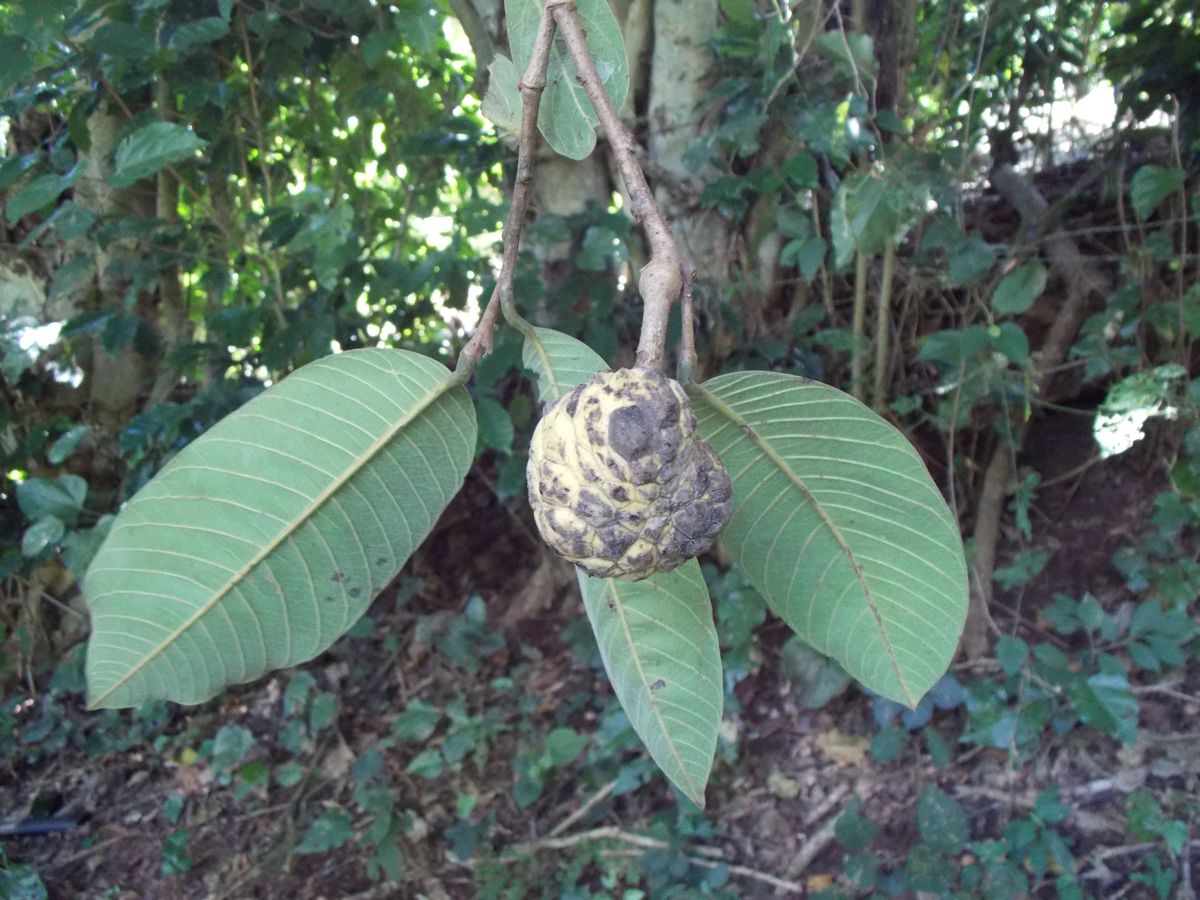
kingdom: Plantae
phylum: Tracheophyta
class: Magnoliopsida
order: Magnoliales
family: Annonaceae
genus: Annona
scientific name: Annona cherimola
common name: Cherimoya
